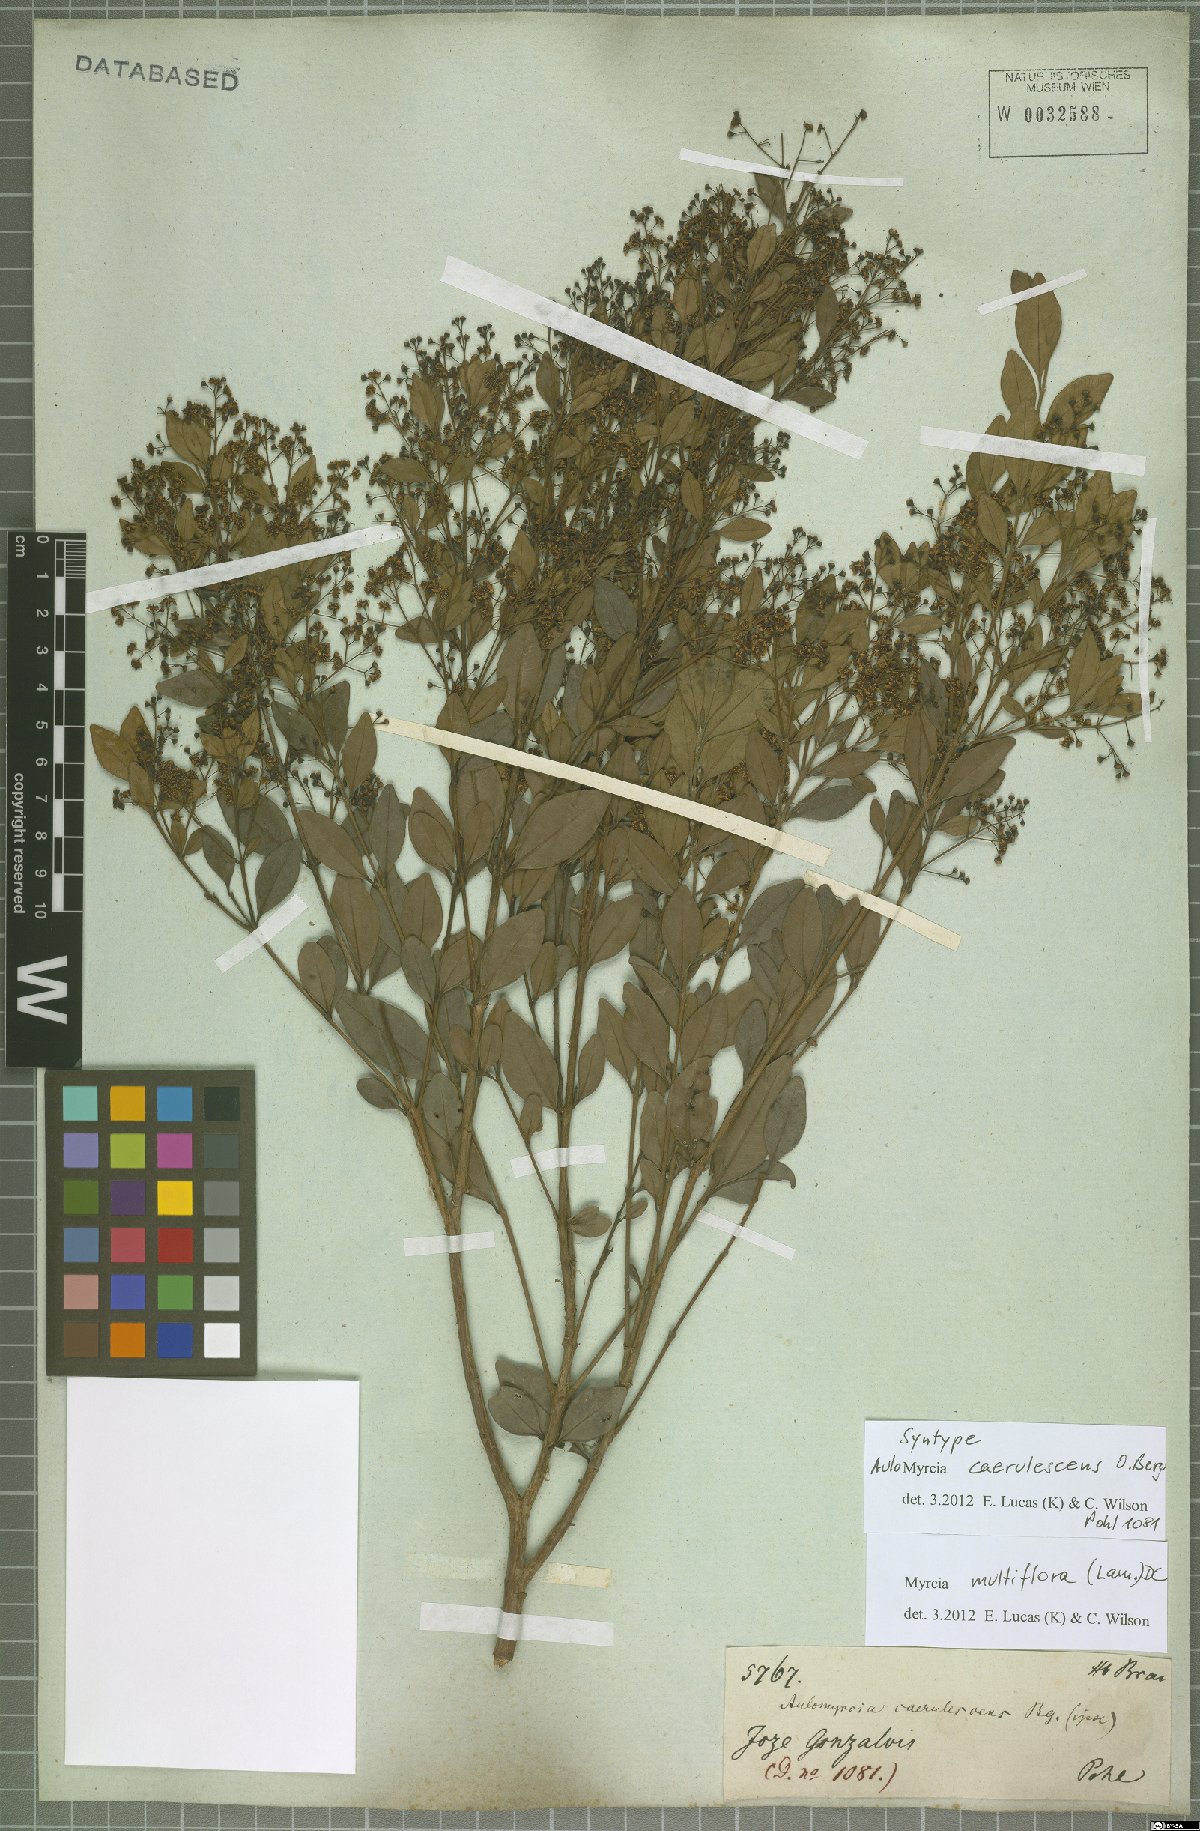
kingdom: Plantae
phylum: Tracheophyta
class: Magnoliopsida
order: Myrtales
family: Myrtaceae
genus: Myrcia
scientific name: Myrcia multiflora
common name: Pedra hume
